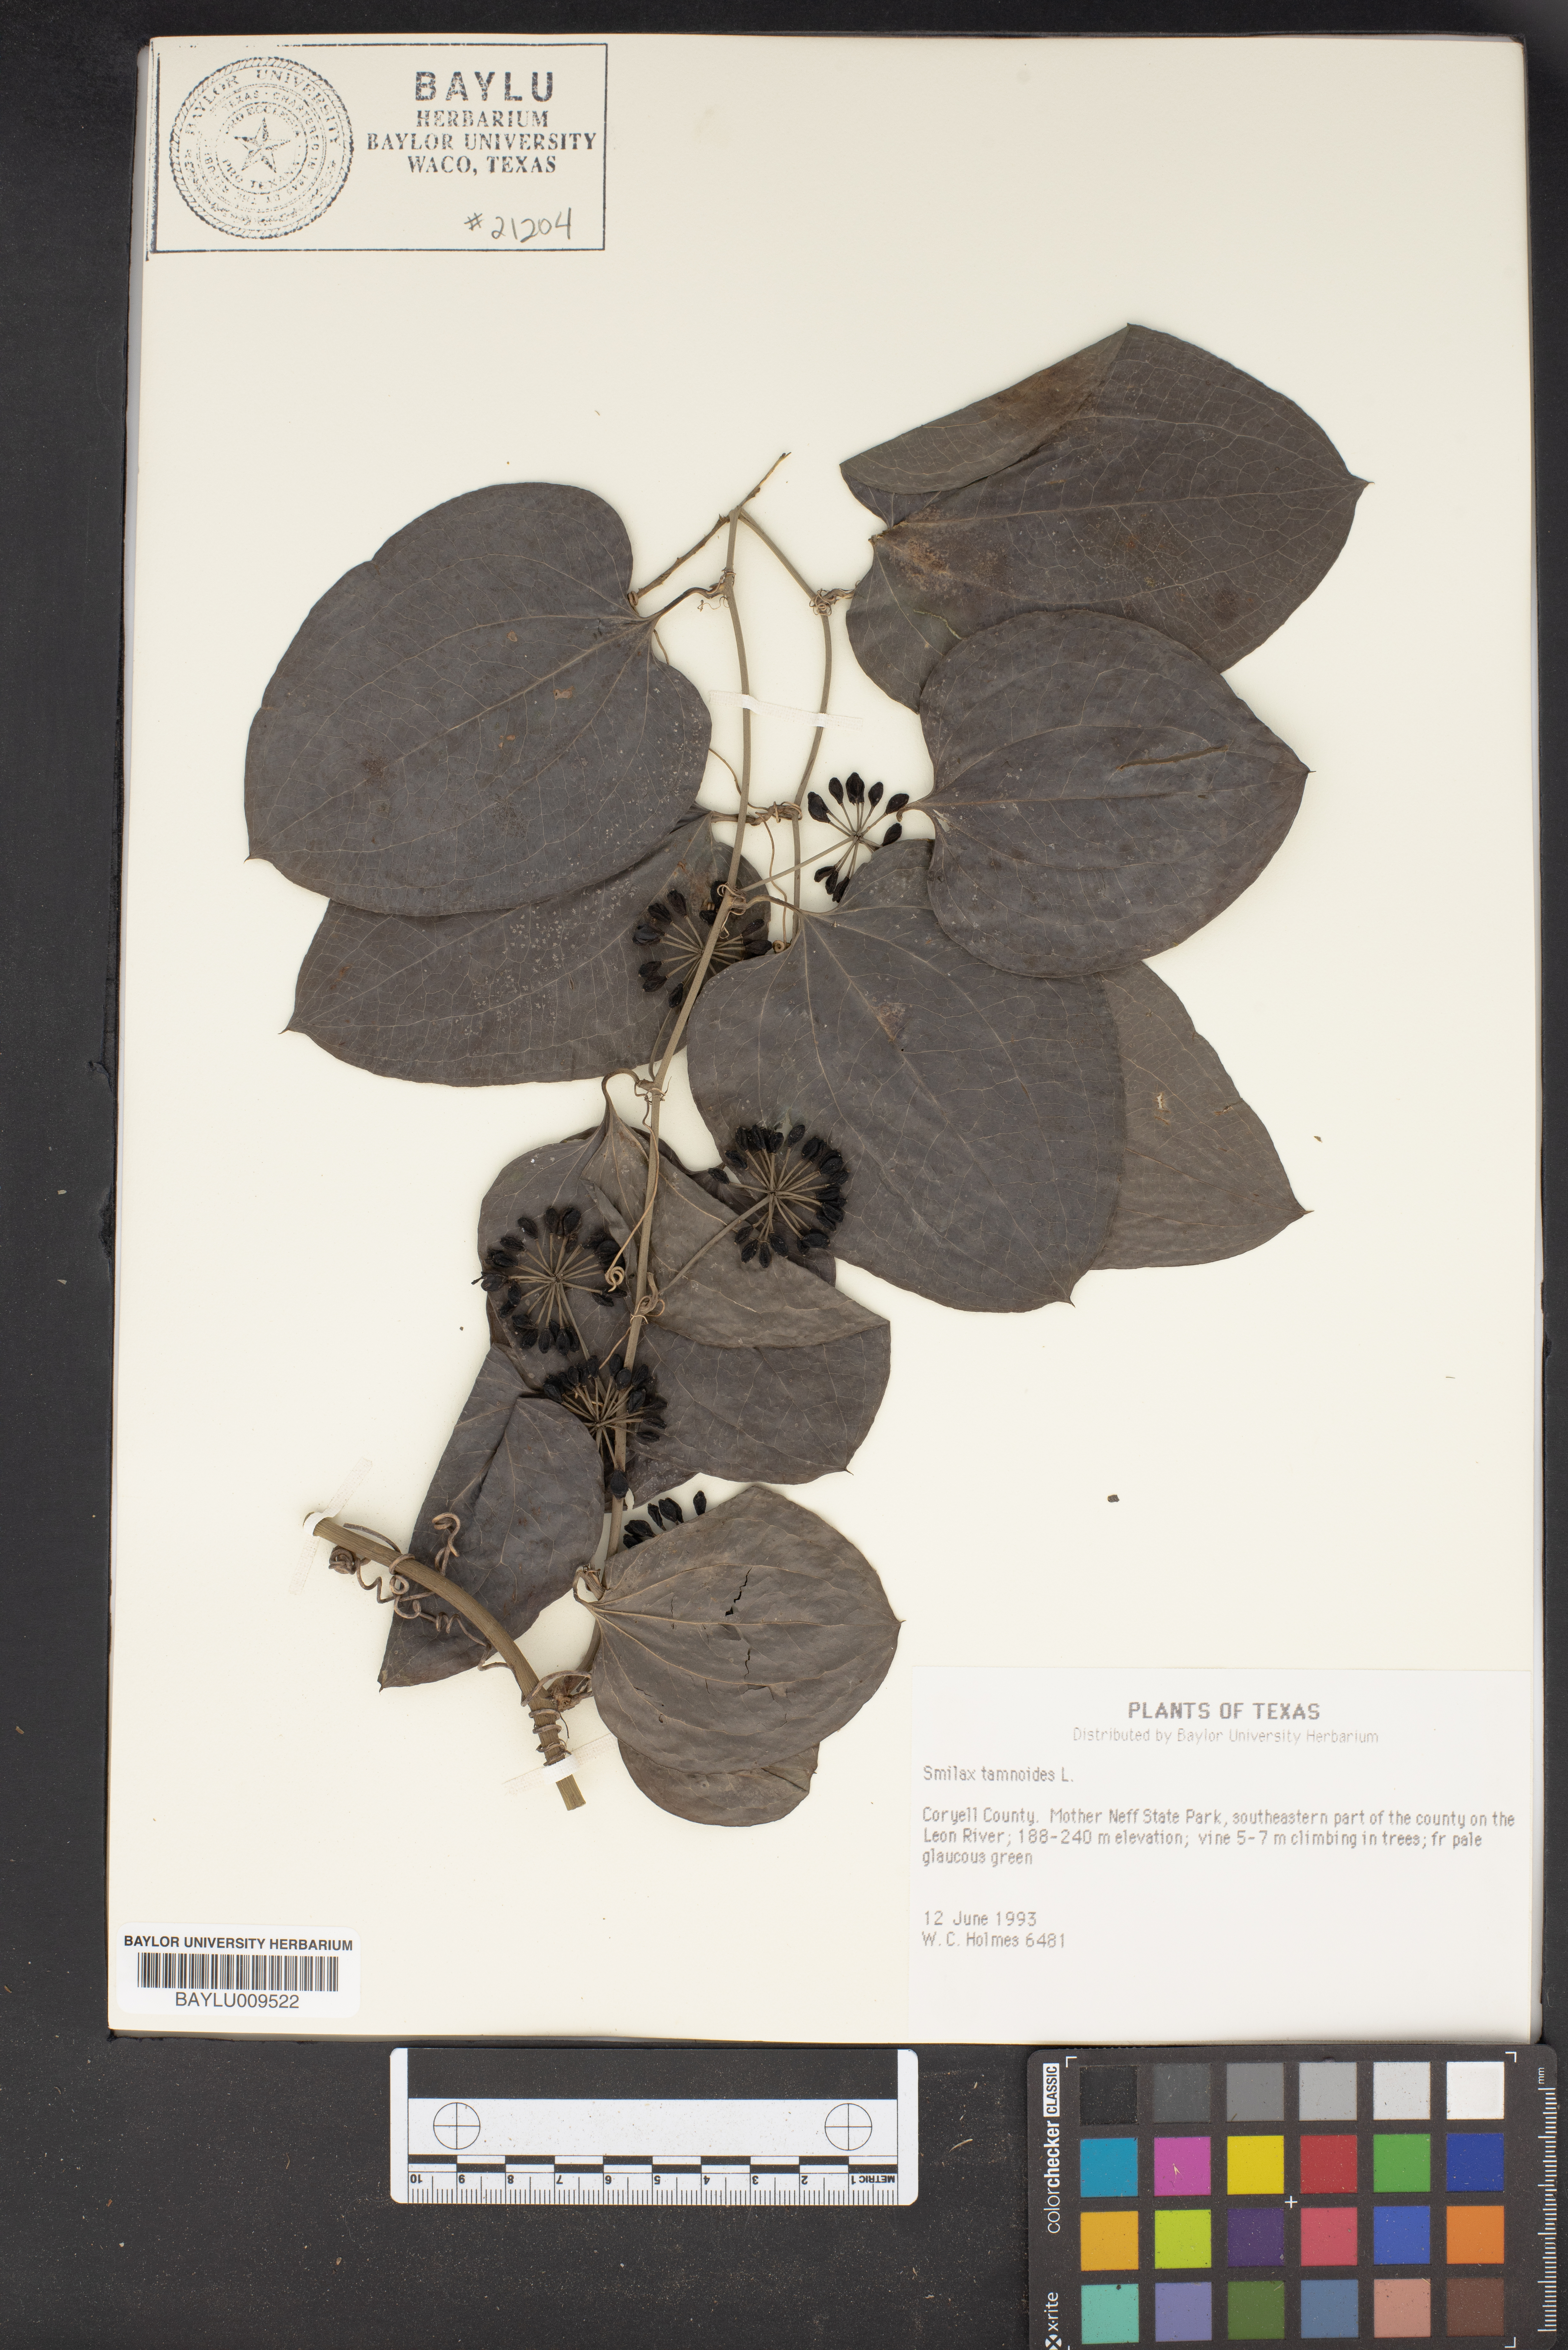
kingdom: Plantae
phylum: Tracheophyta
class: Liliopsida
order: Liliales
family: Smilacaceae
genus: Smilax
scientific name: Smilax tamnoides
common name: Hellfetter
